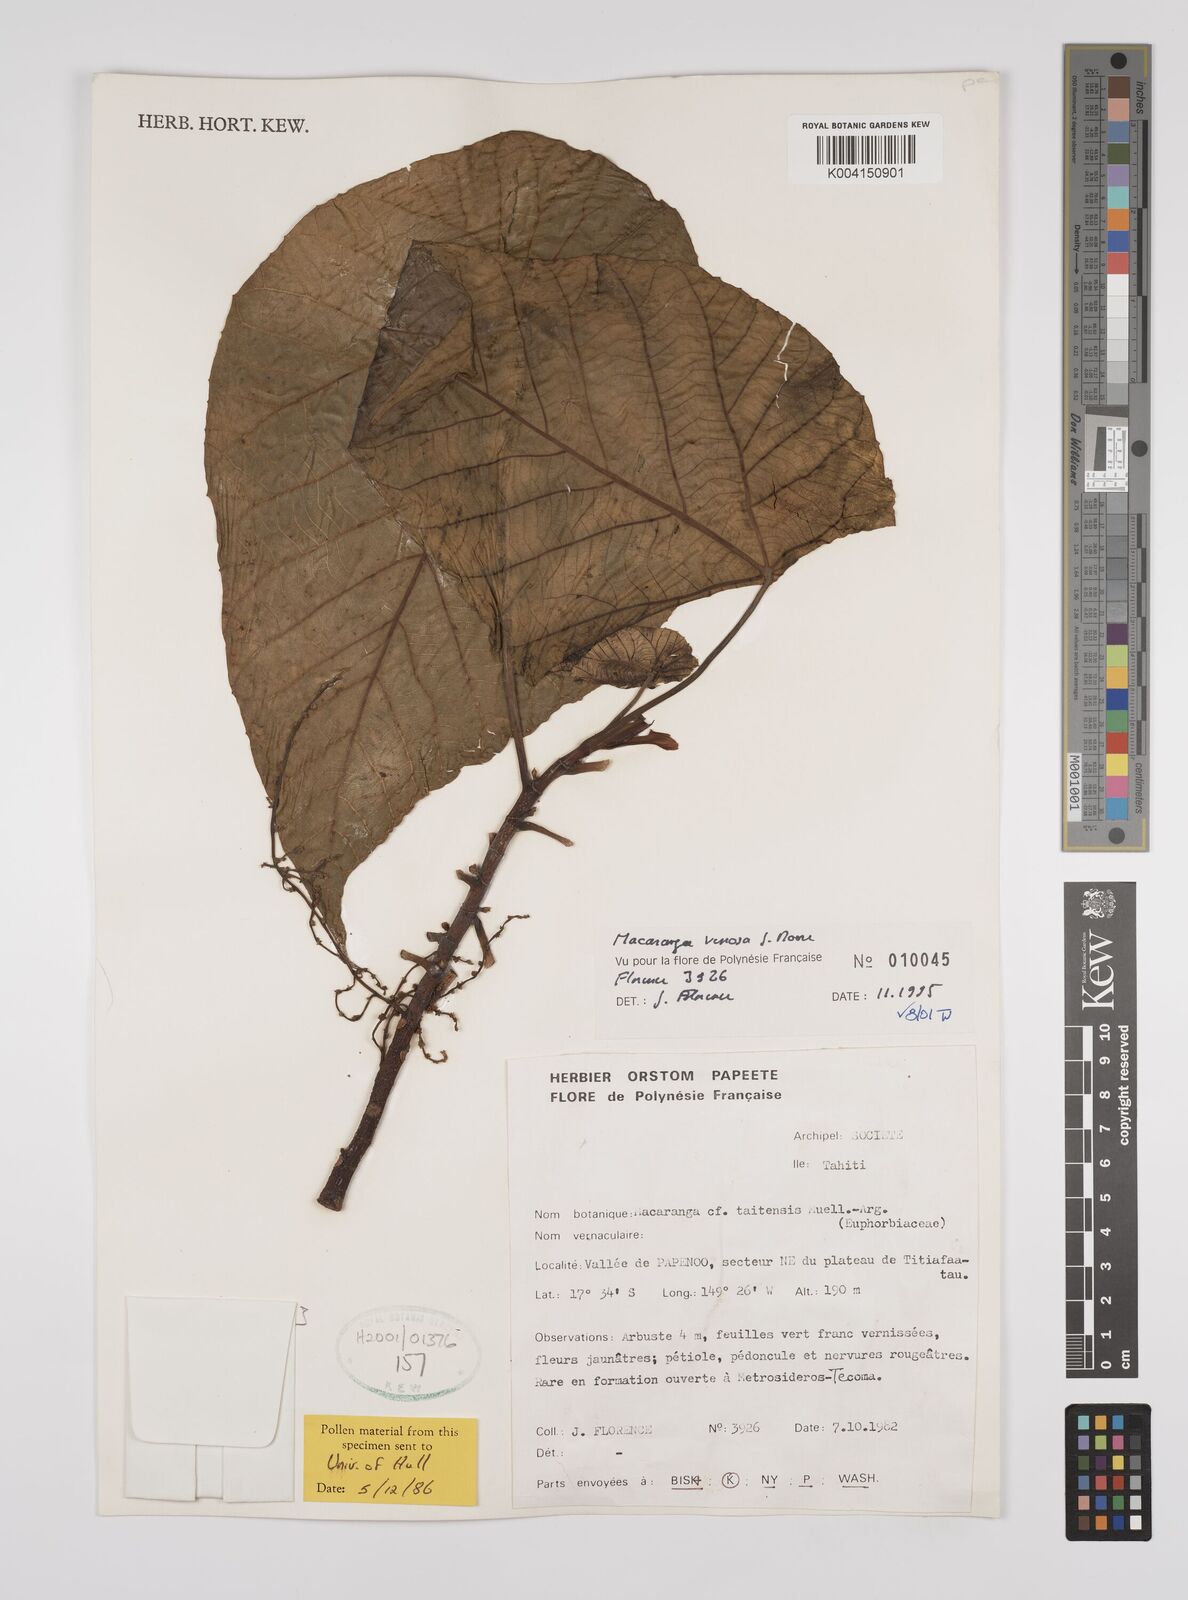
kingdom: Plantae
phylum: Tracheophyta
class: Magnoliopsida
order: Malpighiales
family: Euphorbiaceae
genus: Macaranga
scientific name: Macaranga venosa
